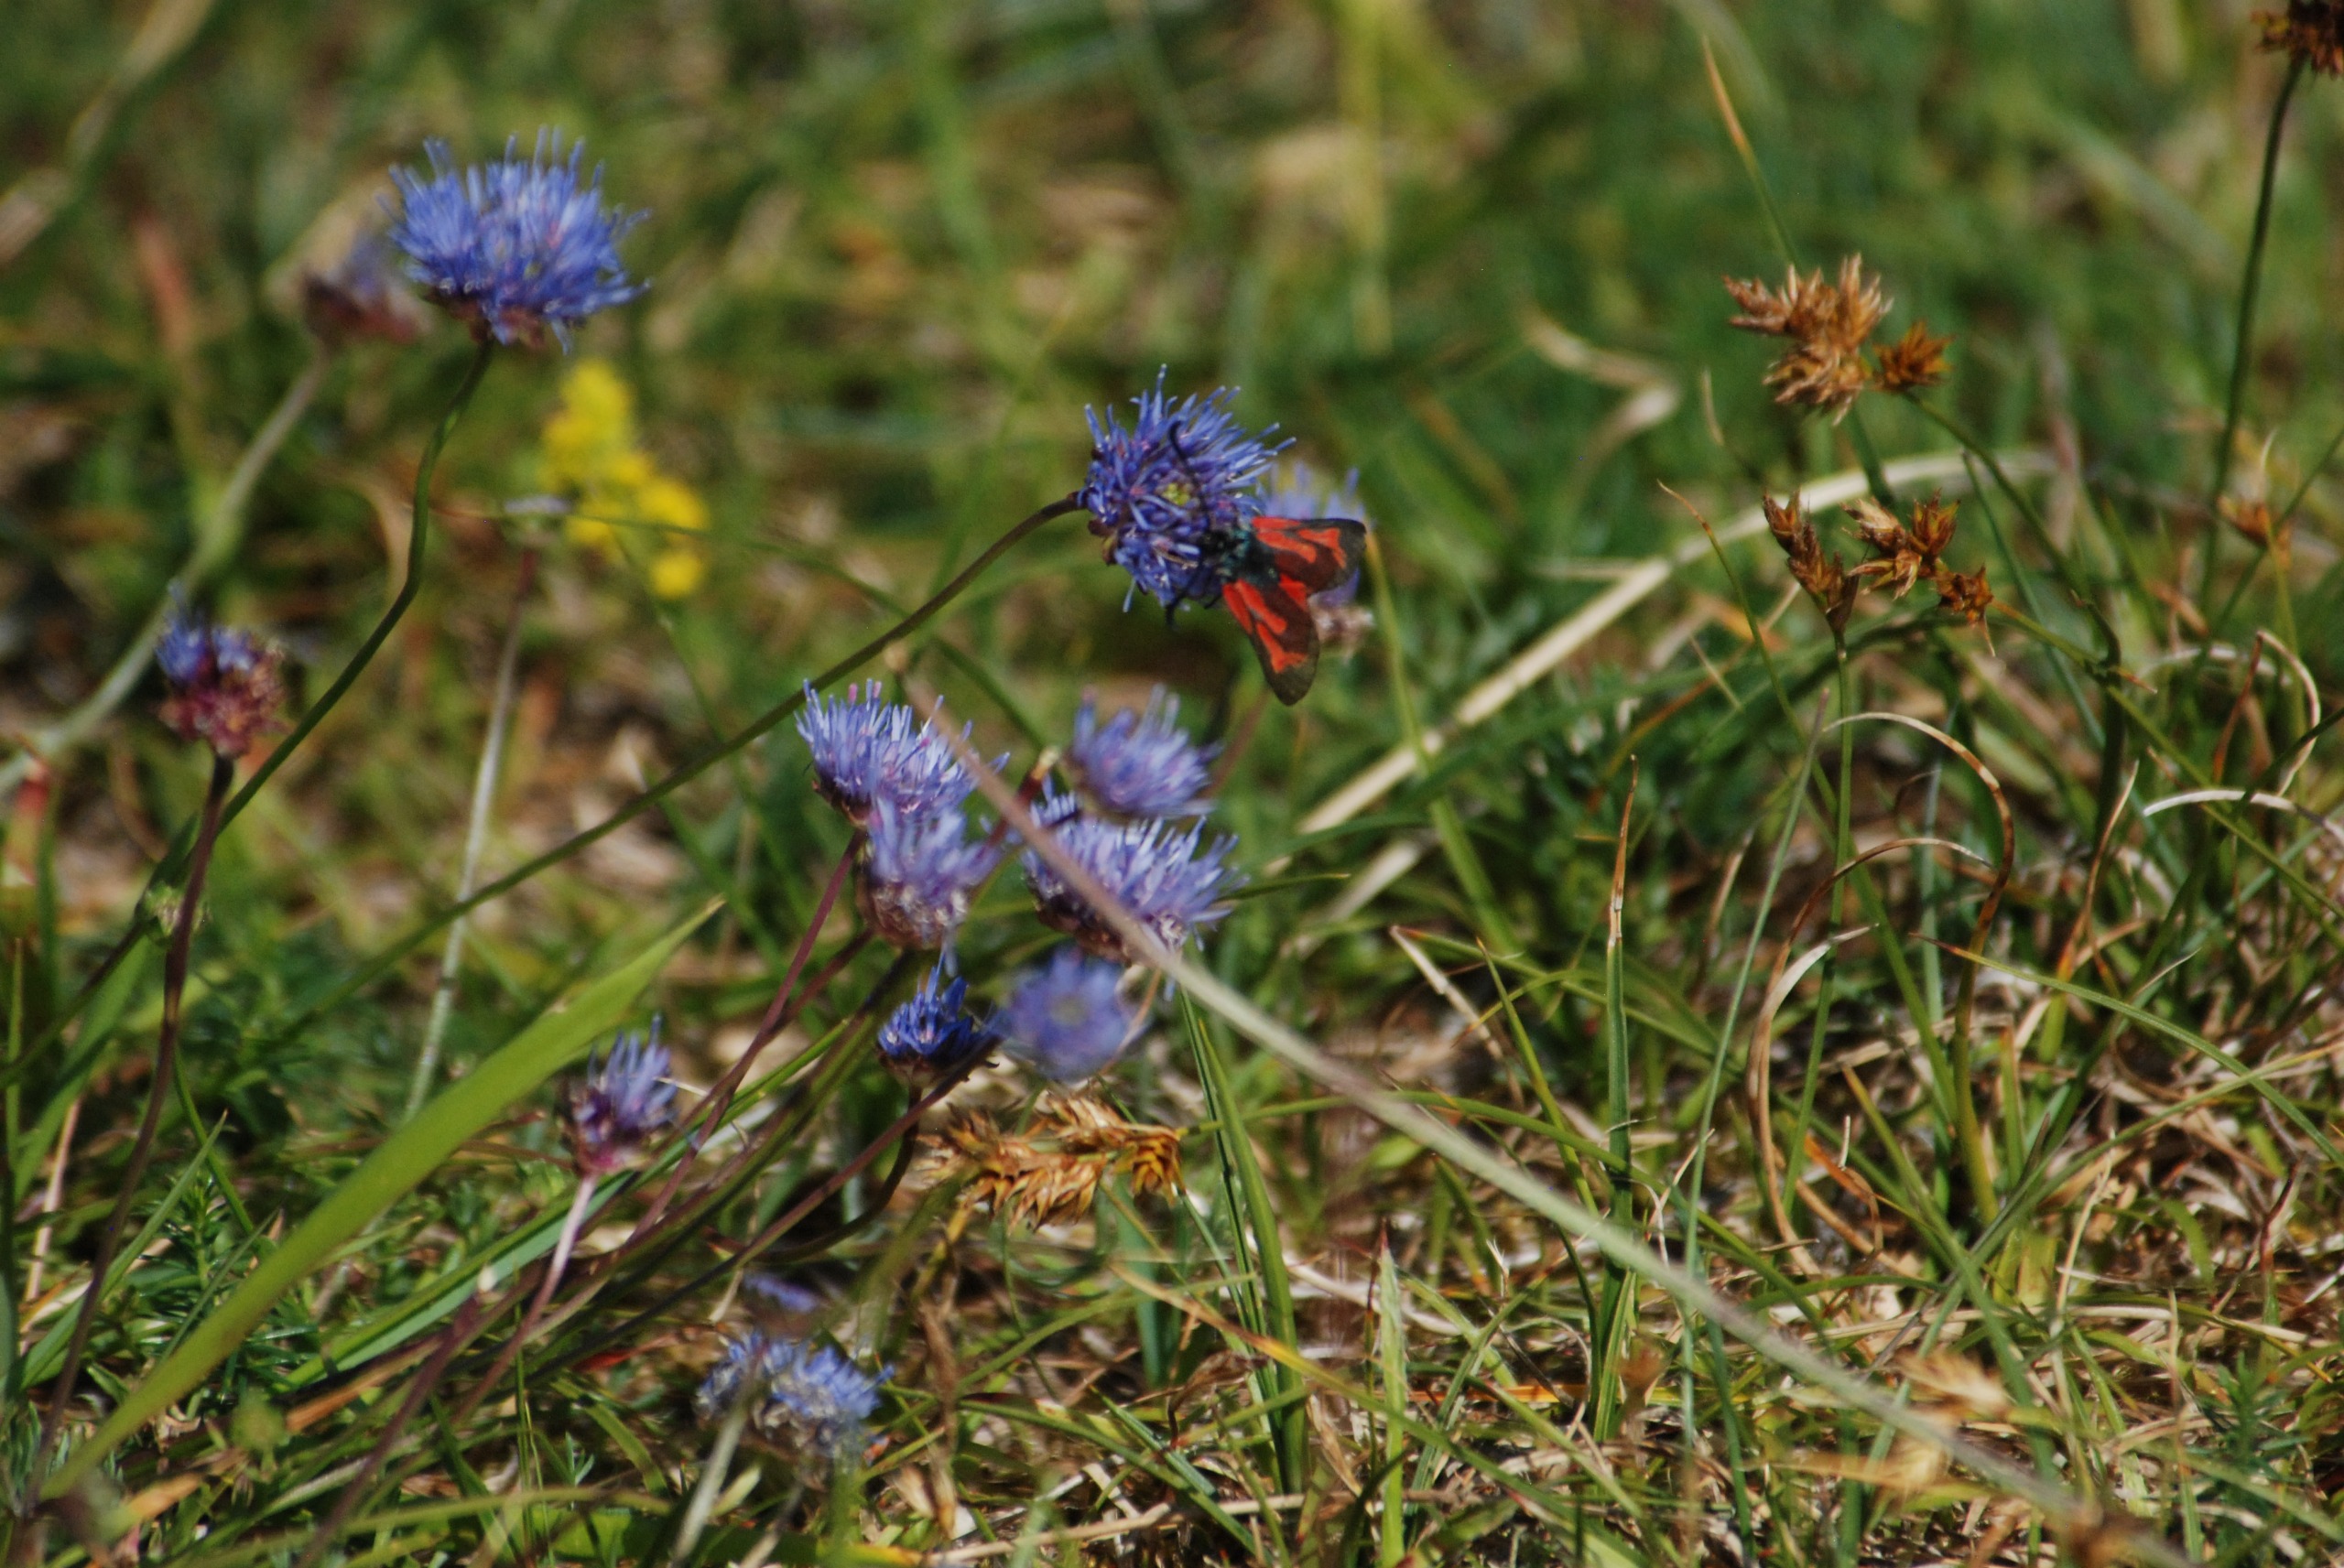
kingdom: Animalia
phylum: Arthropoda
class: Insecta
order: Lepidoptera
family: Zygaenidae
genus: Zygaena
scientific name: Zygaena minos
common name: Pimpernelkøllesværmer
